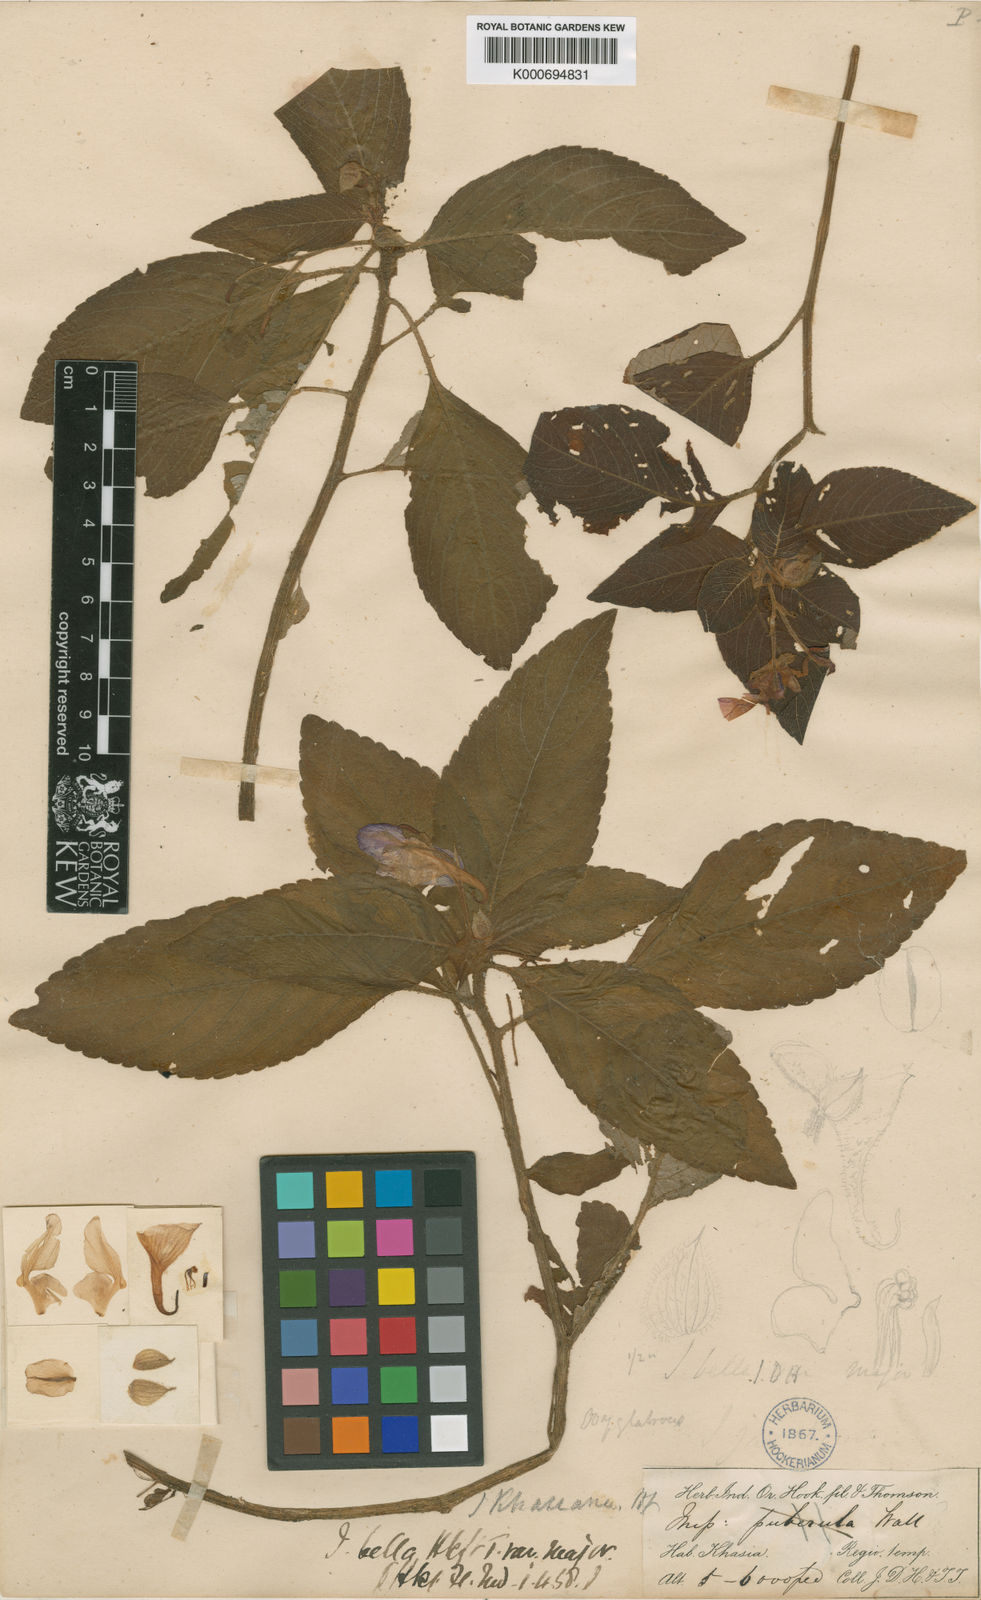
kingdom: Plantae
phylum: Tracheophyta
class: Magnoliopsida
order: Ericales
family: Balsaminaceae
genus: Impatiens
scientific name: Impatiens khasiana
